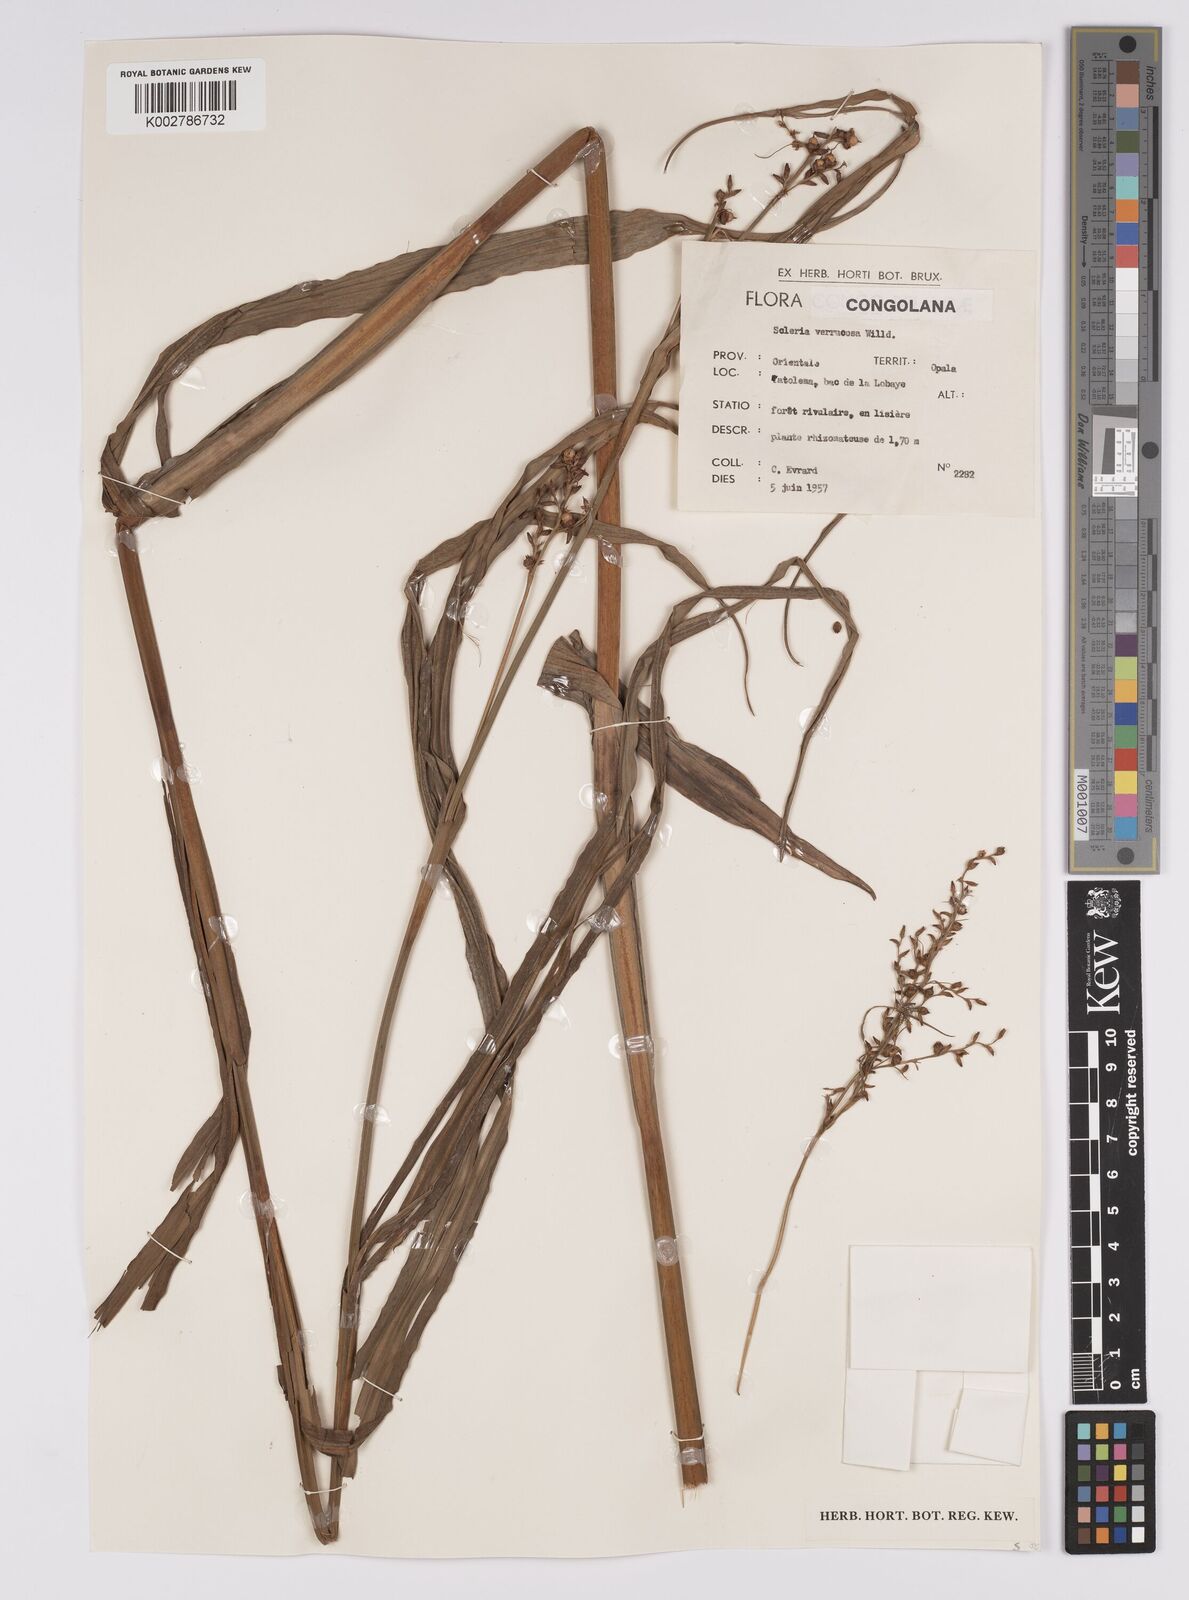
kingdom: Plantae
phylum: Tracheophyta
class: Liliopsida
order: Poales
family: Cyperaceae
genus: Scleria
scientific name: Scleria verrucosa
